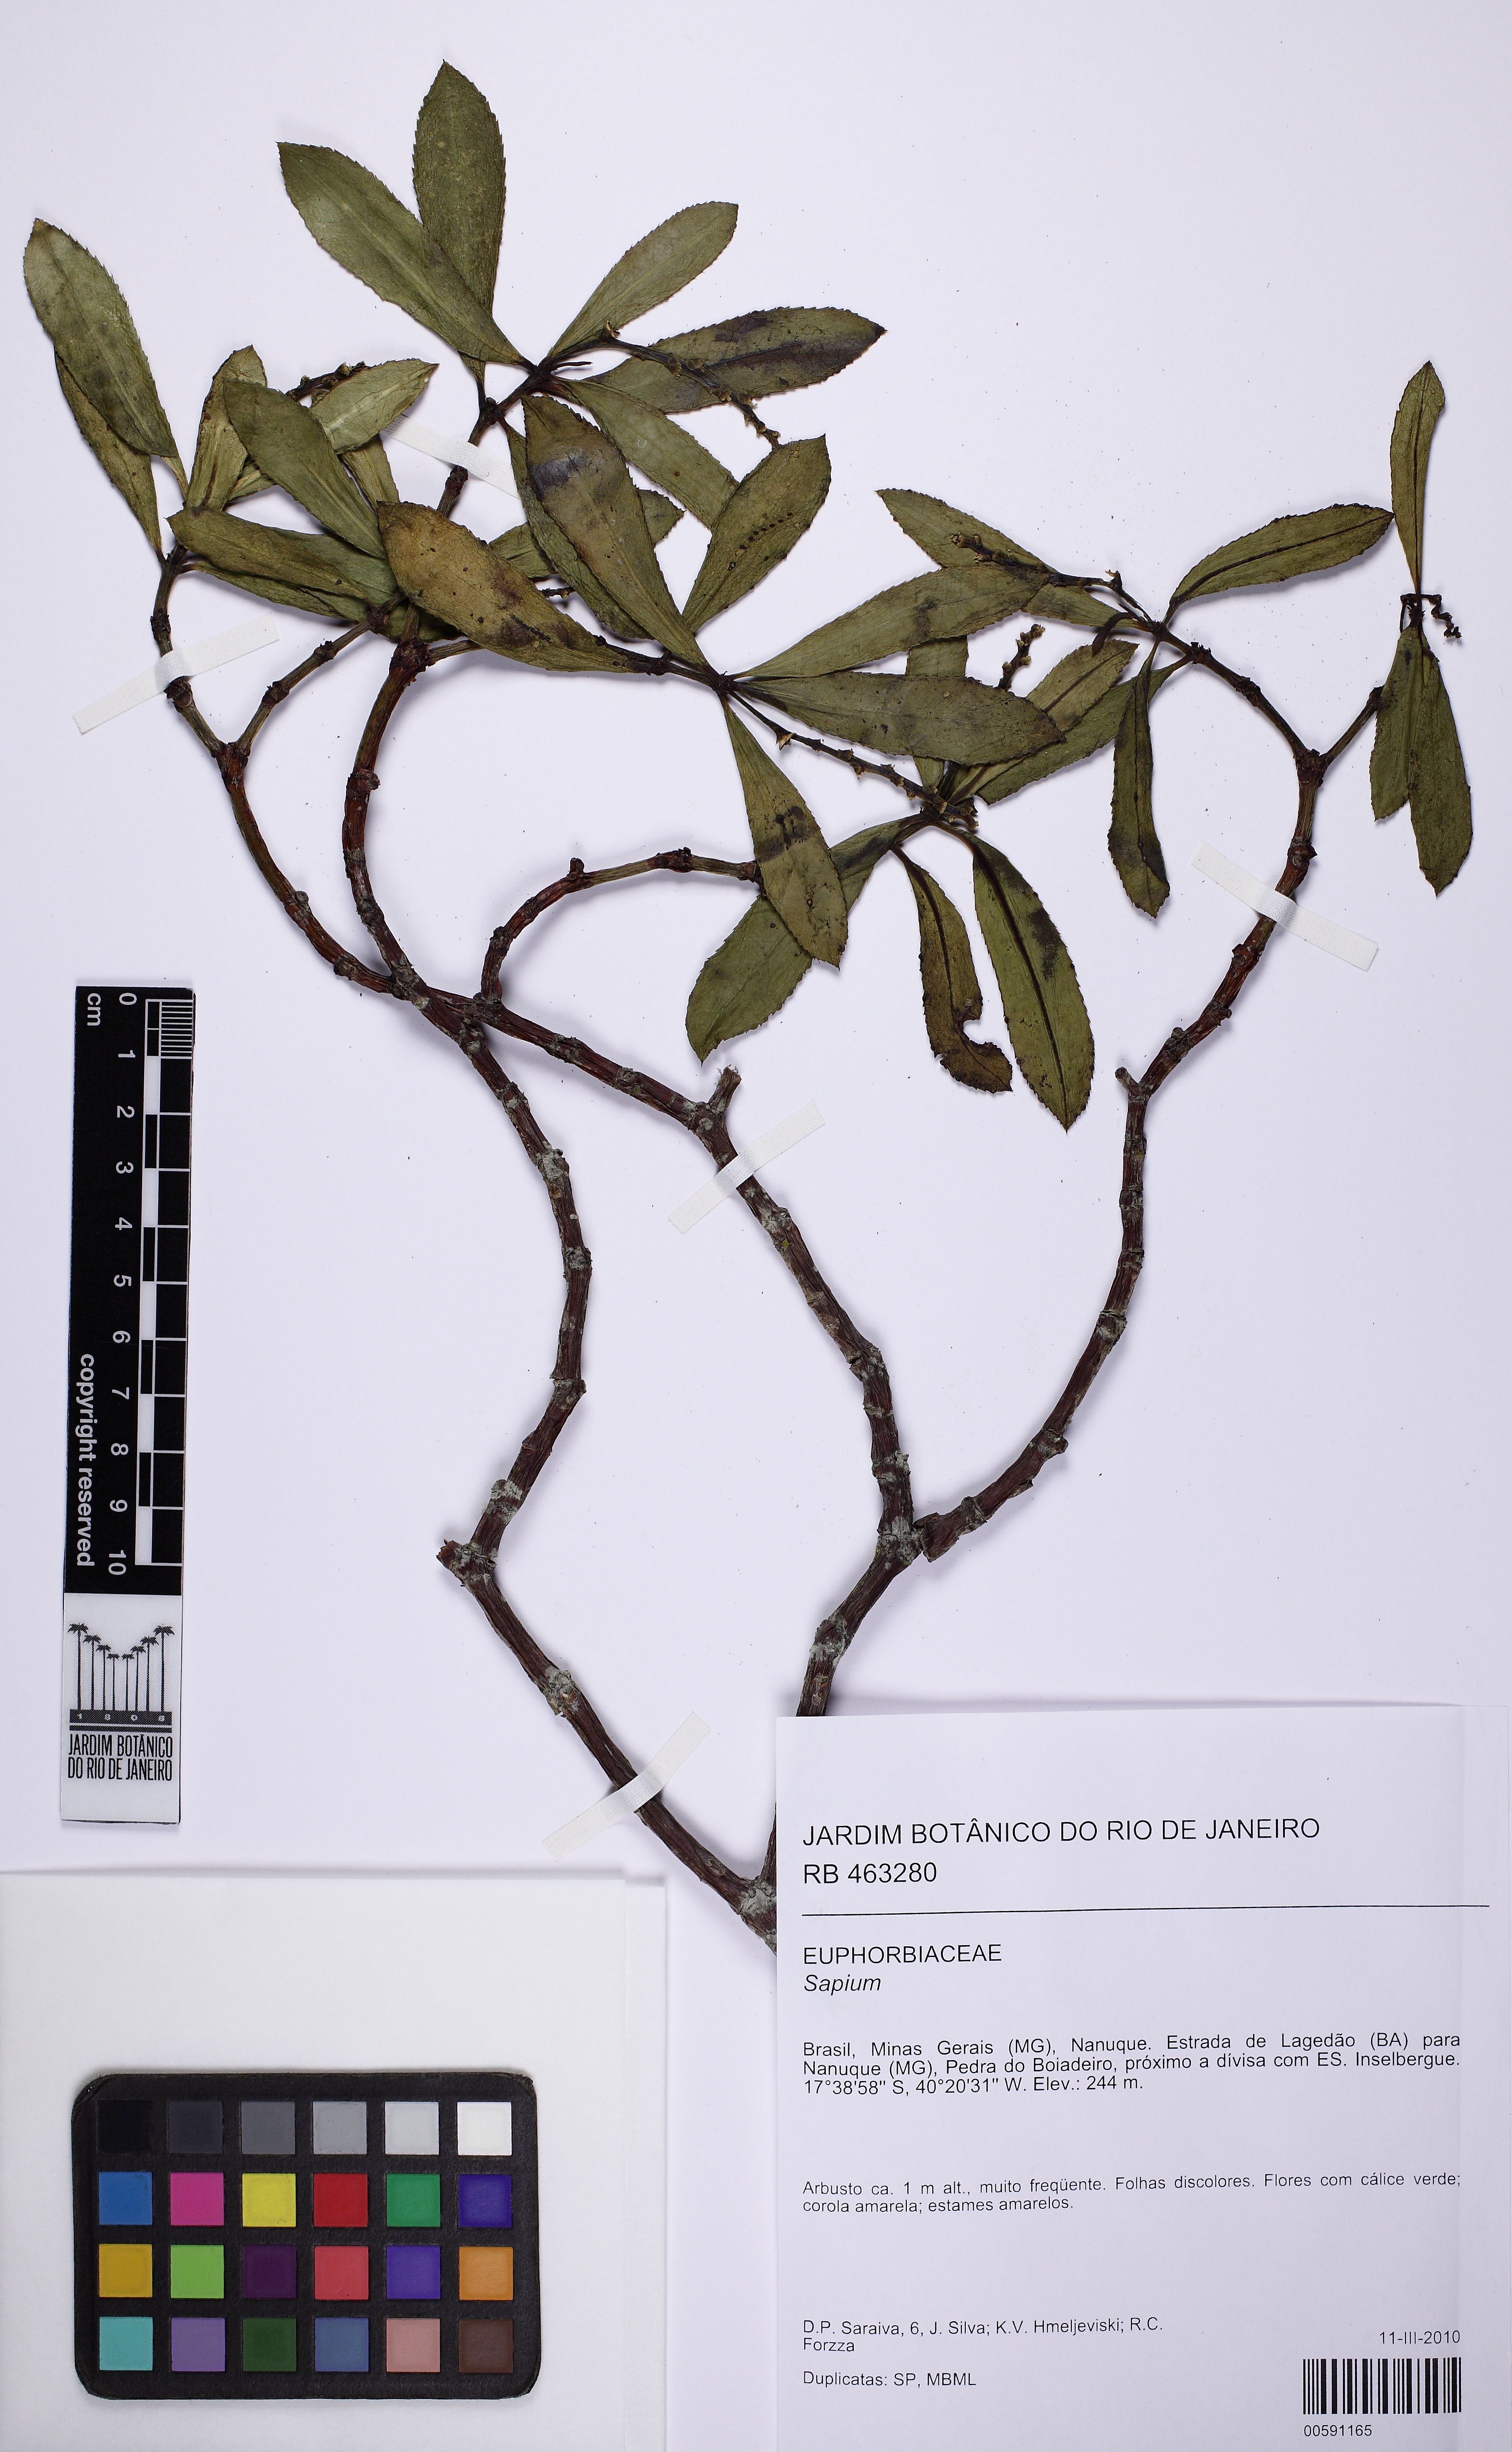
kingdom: Plantae
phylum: Tracheophyta
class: Magnoliopsida
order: Malpighiales
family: Euphorbiaceae
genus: Stillingia
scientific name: Stillingia
